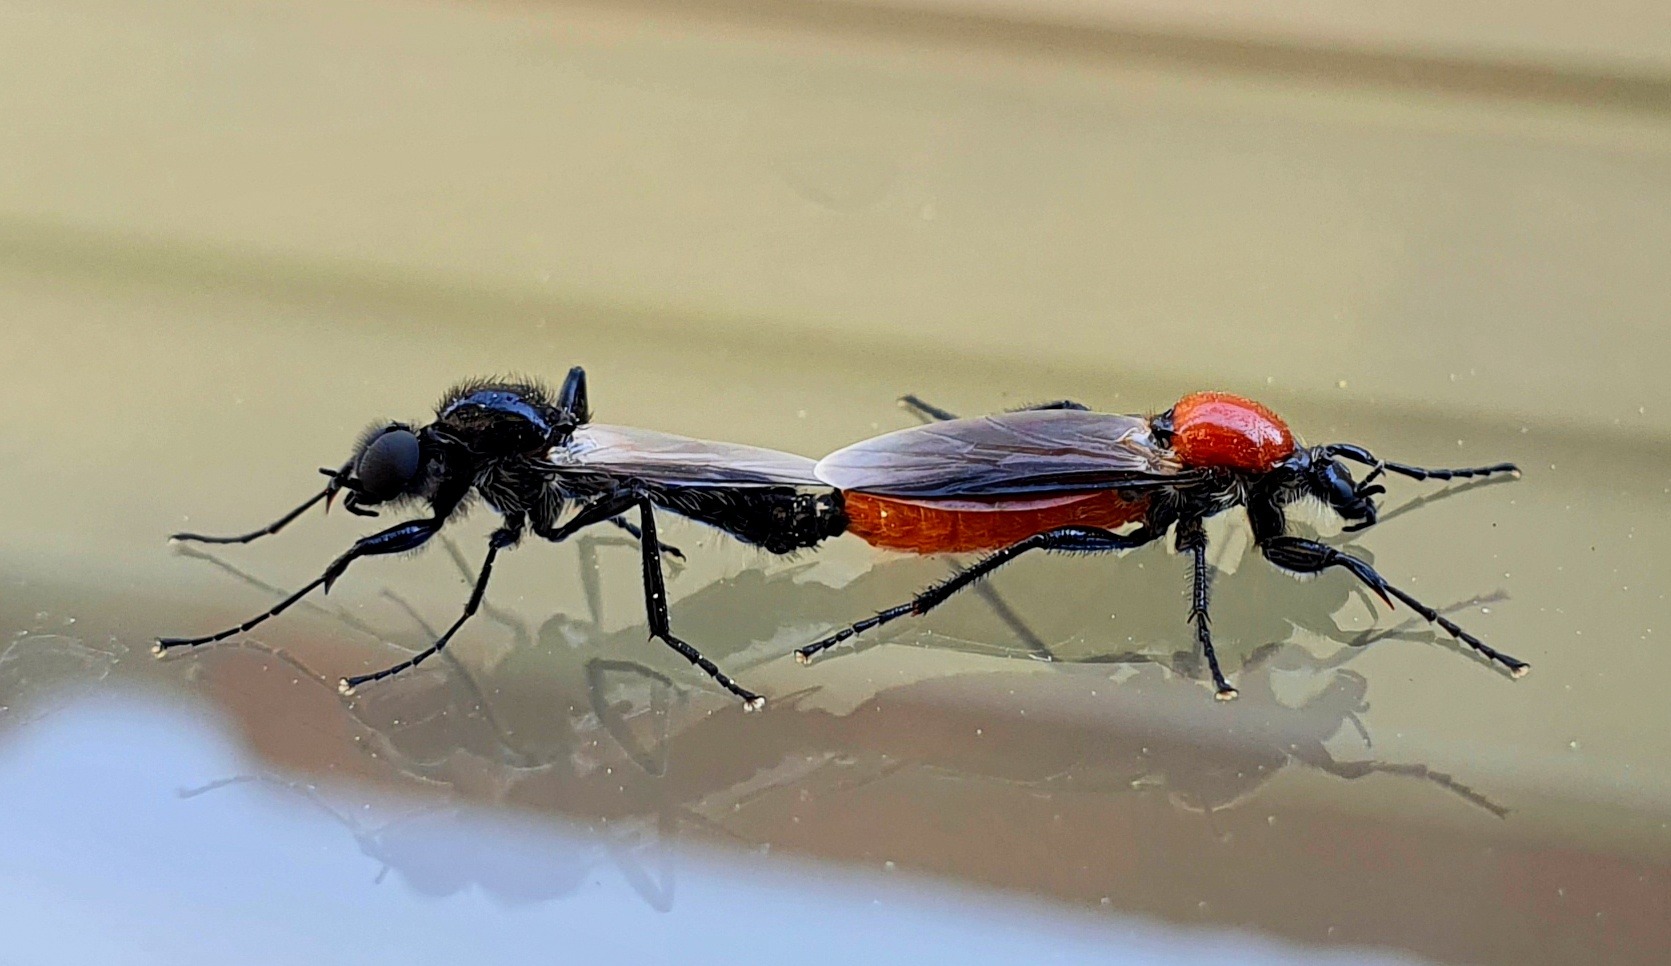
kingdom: Animalia
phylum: Arthropoda
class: Insecta
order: Diptera
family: Bibionidae
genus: Bibio
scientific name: Bibio hortulanus
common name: Havehårmyg
